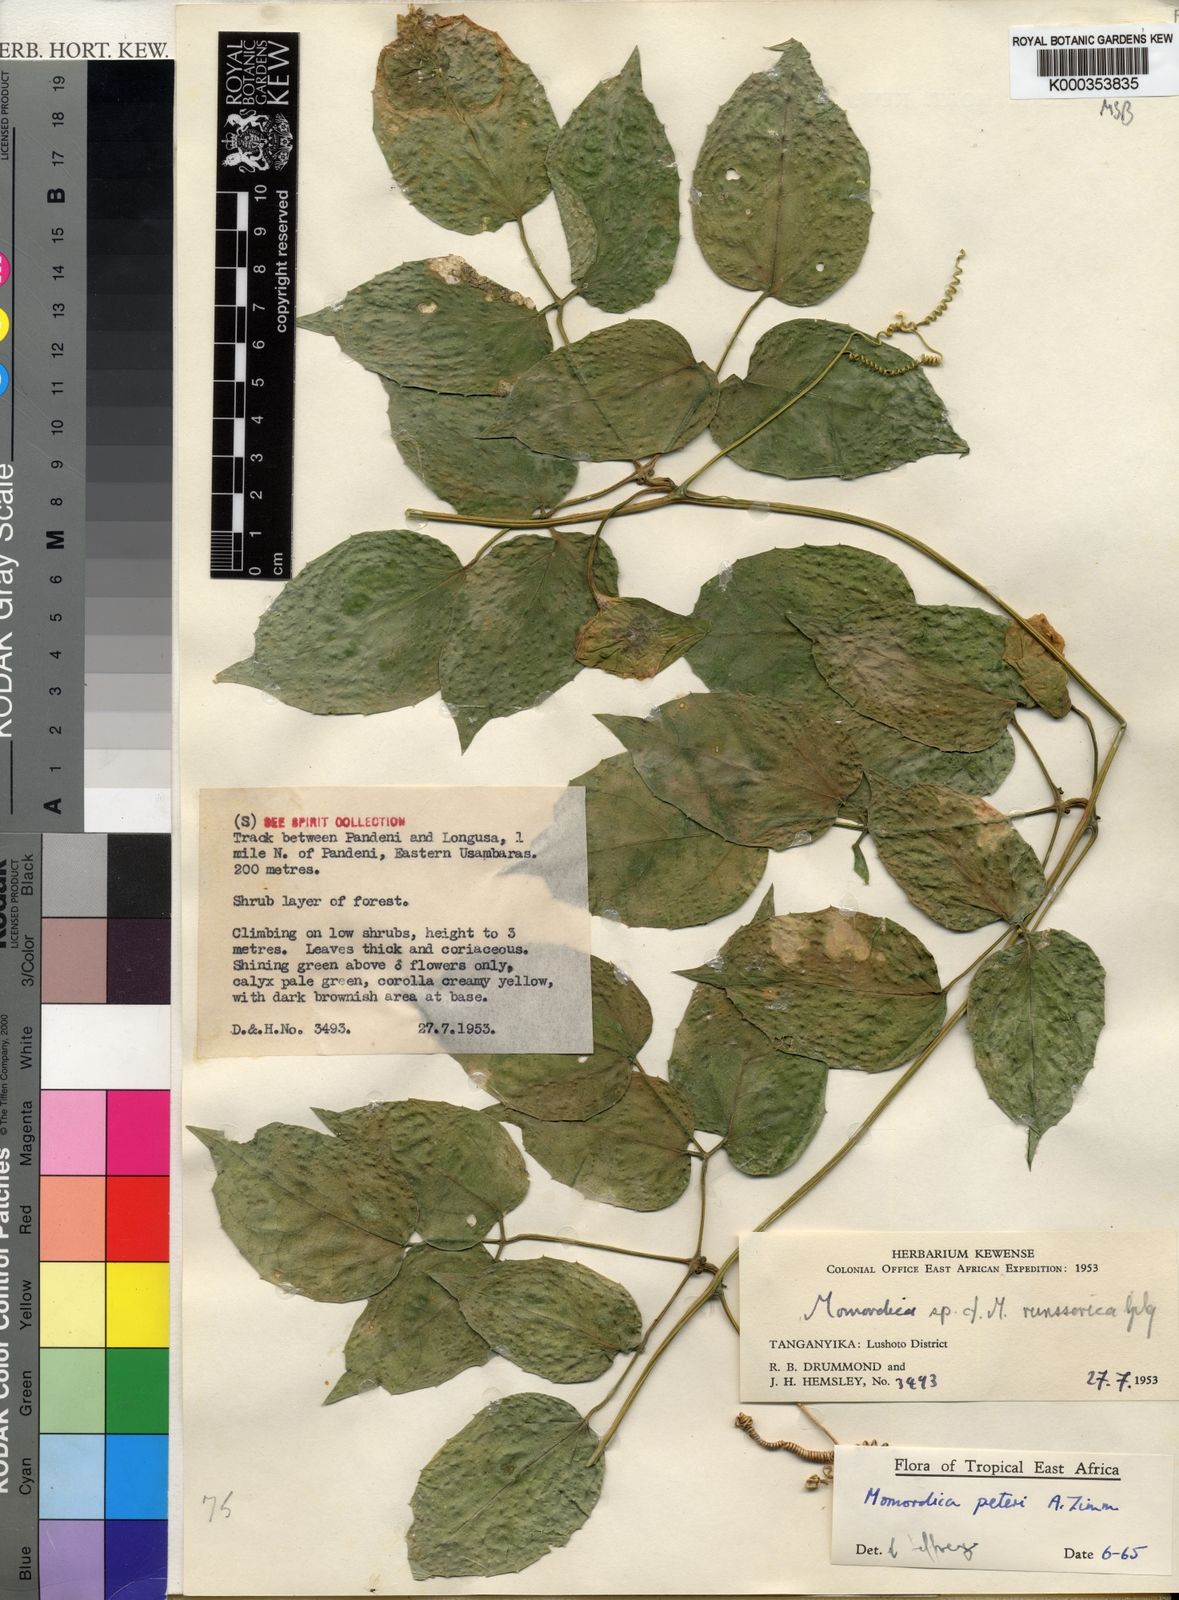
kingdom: Plantae
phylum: Tracheophyta
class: Magnoliopsida
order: Cucurbitales
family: Cucurbitaceae
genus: Momordica
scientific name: Momordica peteri
